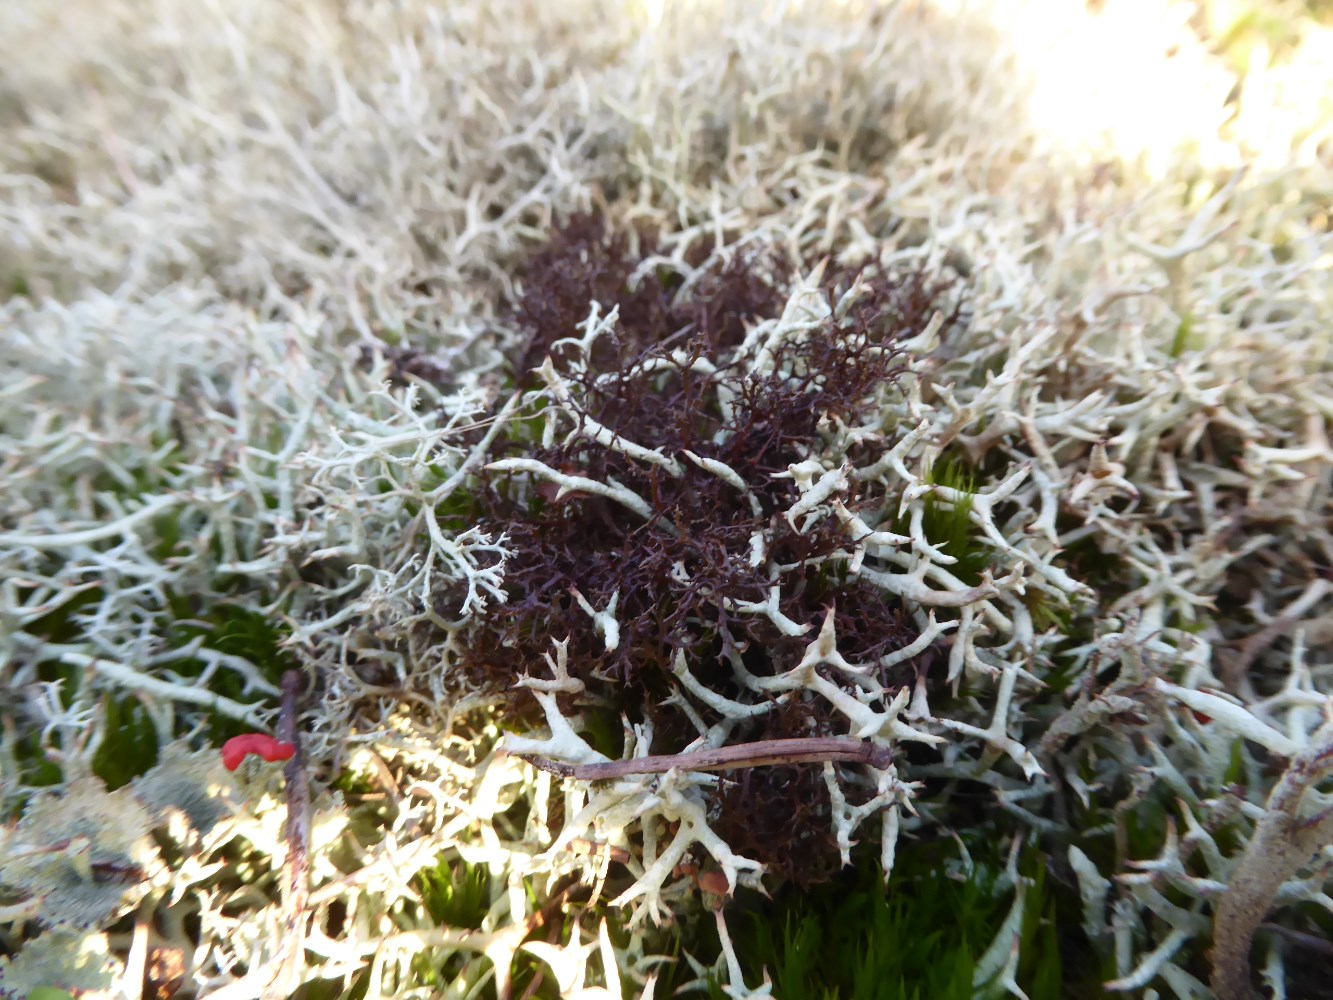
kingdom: Fungi
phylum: Ascomycota
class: Lecanoromycetes
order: Lecanorales
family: Parmeliaceae
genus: Cetraria
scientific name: Cetraria muricata
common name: tue-tjørnelav
